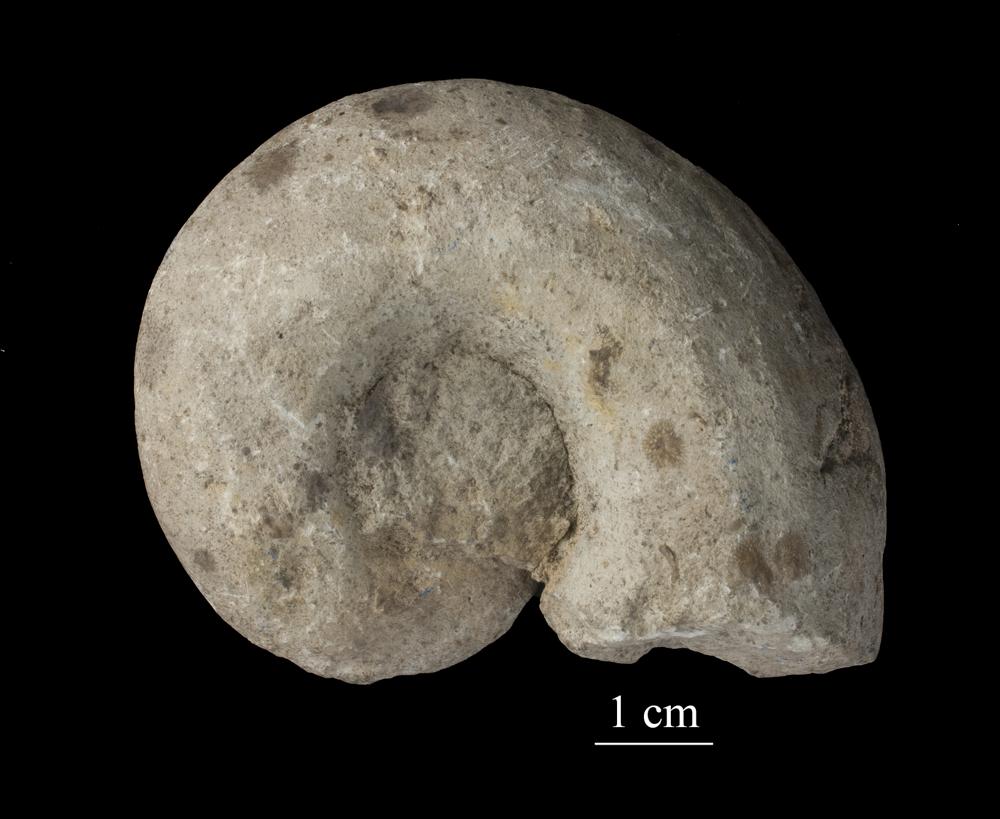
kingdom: Animalia
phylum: Mollusca
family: Macluritidae
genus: Maclurites
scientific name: Maclurites Maclurea neritoides
